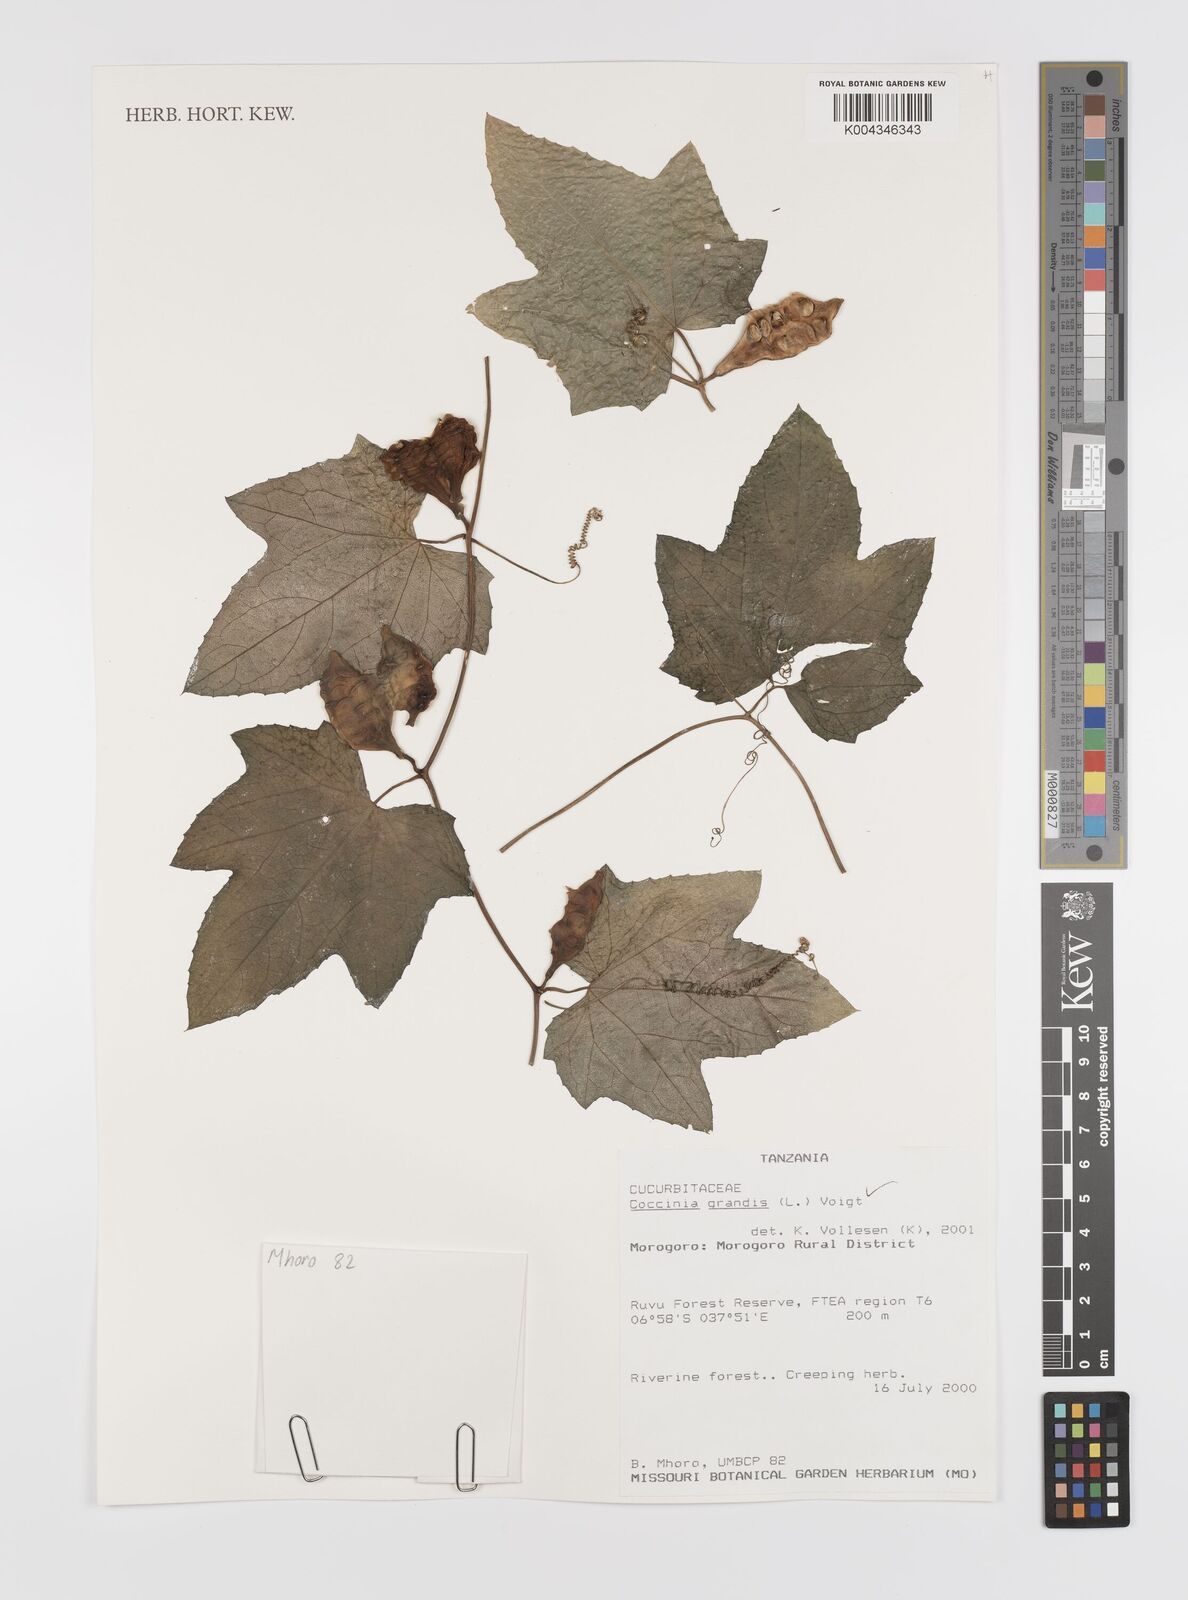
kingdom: Plantae
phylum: Tracheophyta
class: Magnoliopsida
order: Cucurbitales
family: Cucurbitaceae
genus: Coccinia
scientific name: Coccinia grandis
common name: Ivy gourd
